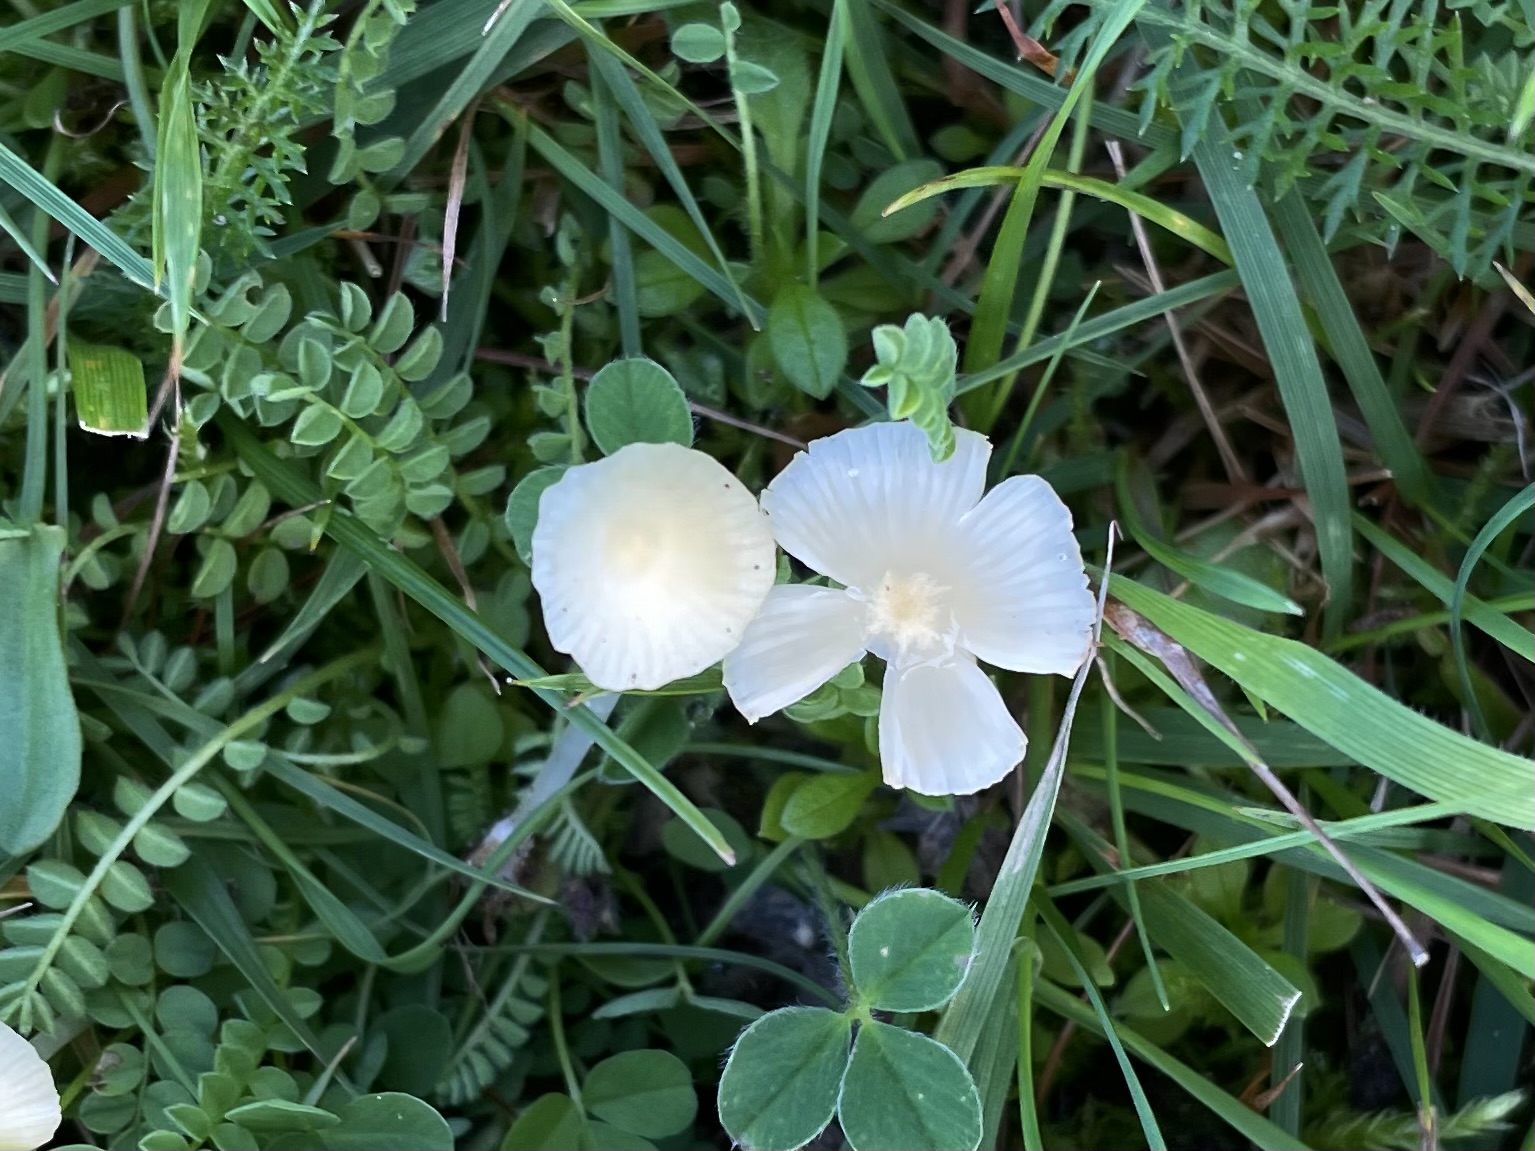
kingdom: Fungi
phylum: Basidiomycota
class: Agaricomycetes
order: Agaricales
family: Mycenaceae
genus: Atheniella
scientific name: Atheniella flavoalba
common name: gulhvid huesvamp
